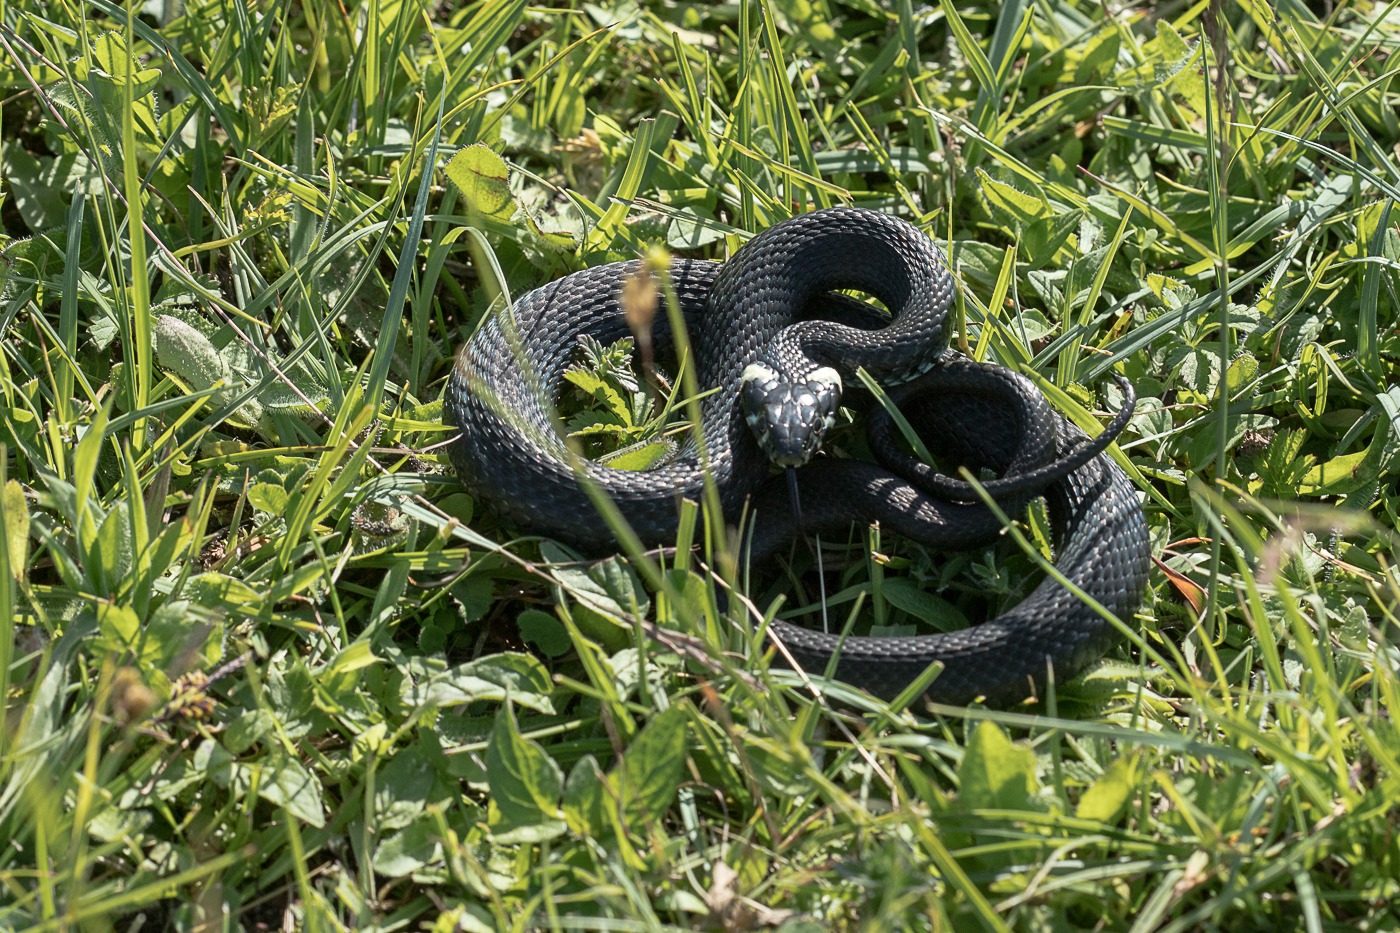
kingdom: Animalia
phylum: Chordata
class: Squamata
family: Colubridae
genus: Natrix
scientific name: Natrix natrix
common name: Snog
